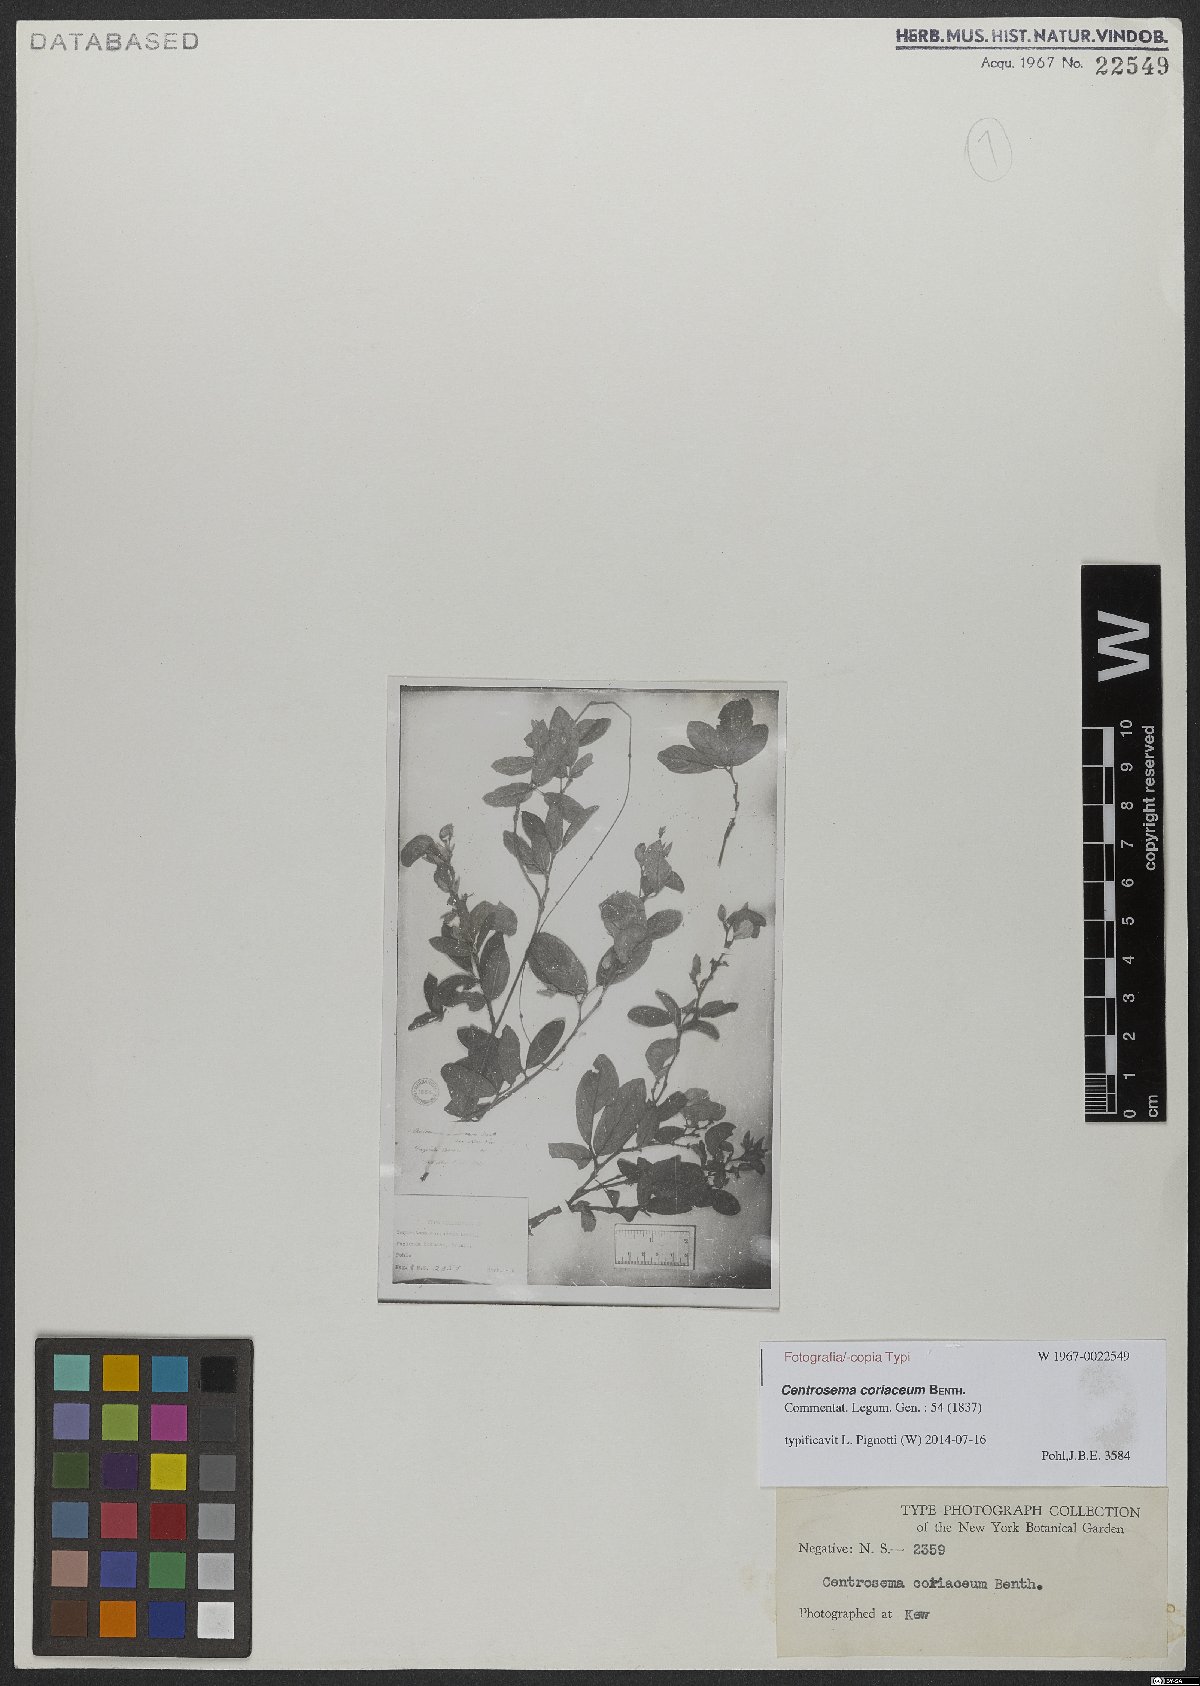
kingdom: Plantae
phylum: Tracheophyta
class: Magnoliopsida
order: Fabales
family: Fabaceae
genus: Centrosema
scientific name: Centrosema coriaceum
